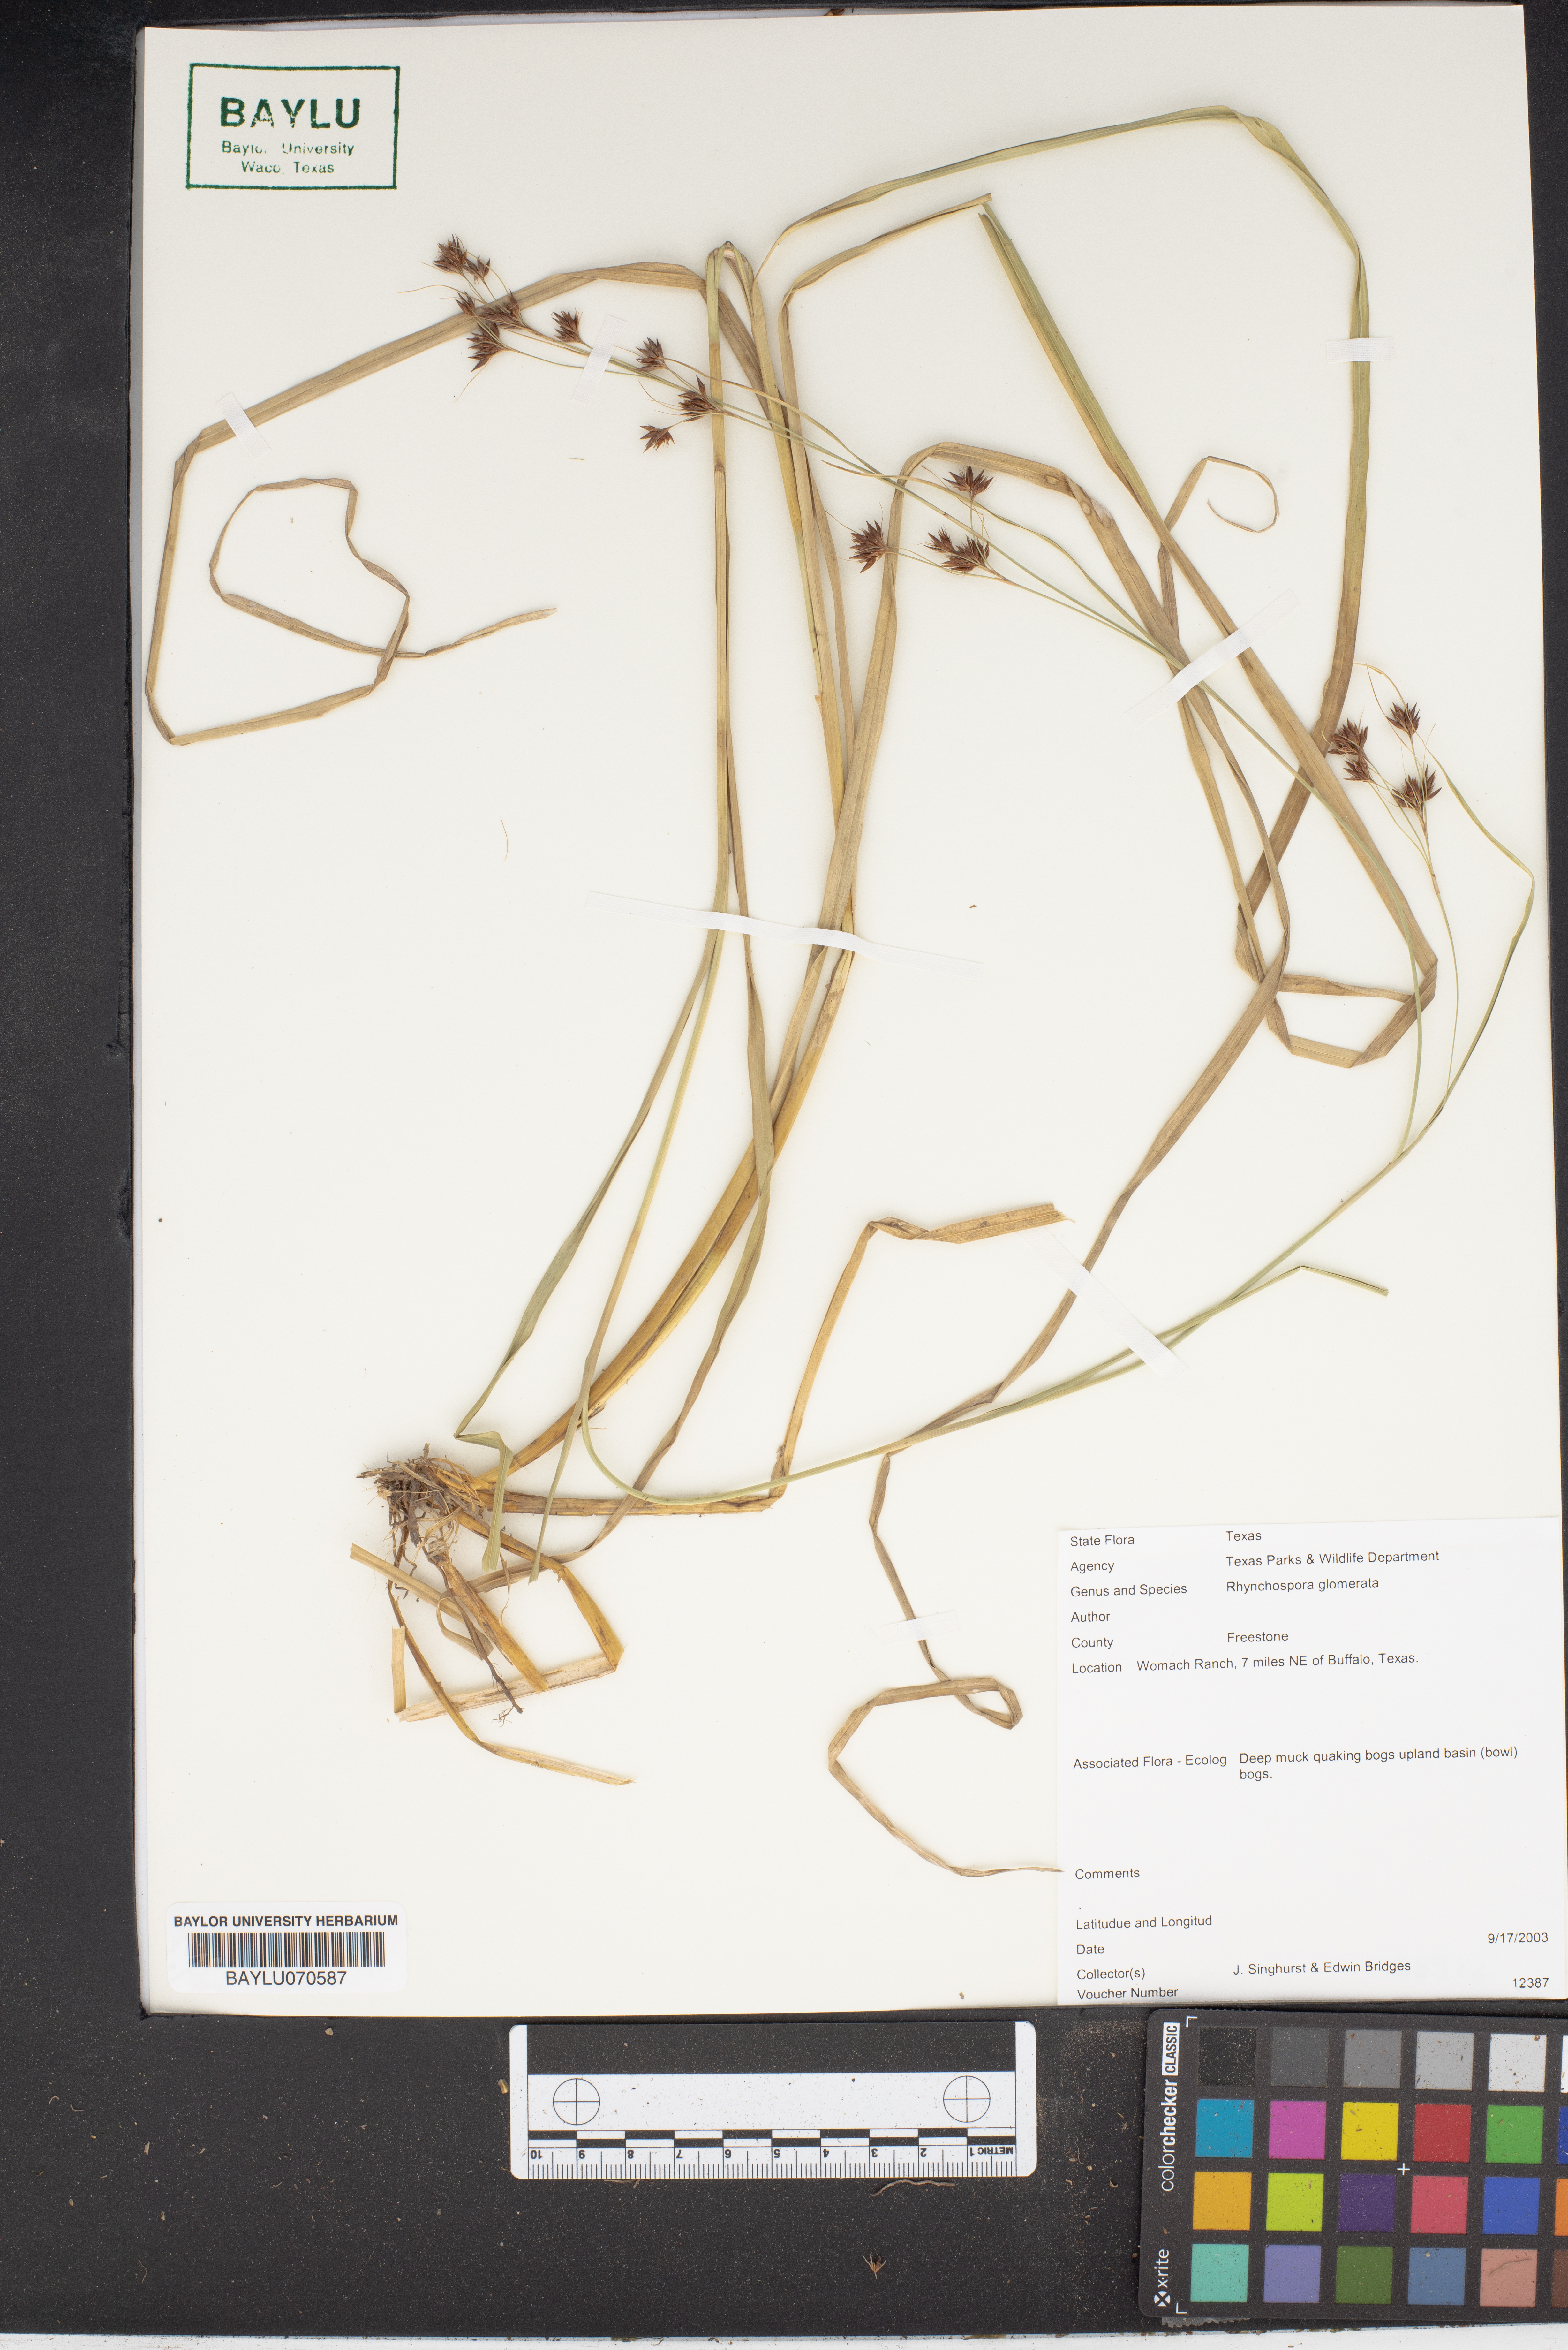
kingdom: Plantae
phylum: Tracheophyta
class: Liliopsida
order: Poales
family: Cyperaceae
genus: Rhynchospora
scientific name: Rhynchospora glomerata
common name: Cluster beak sedge
